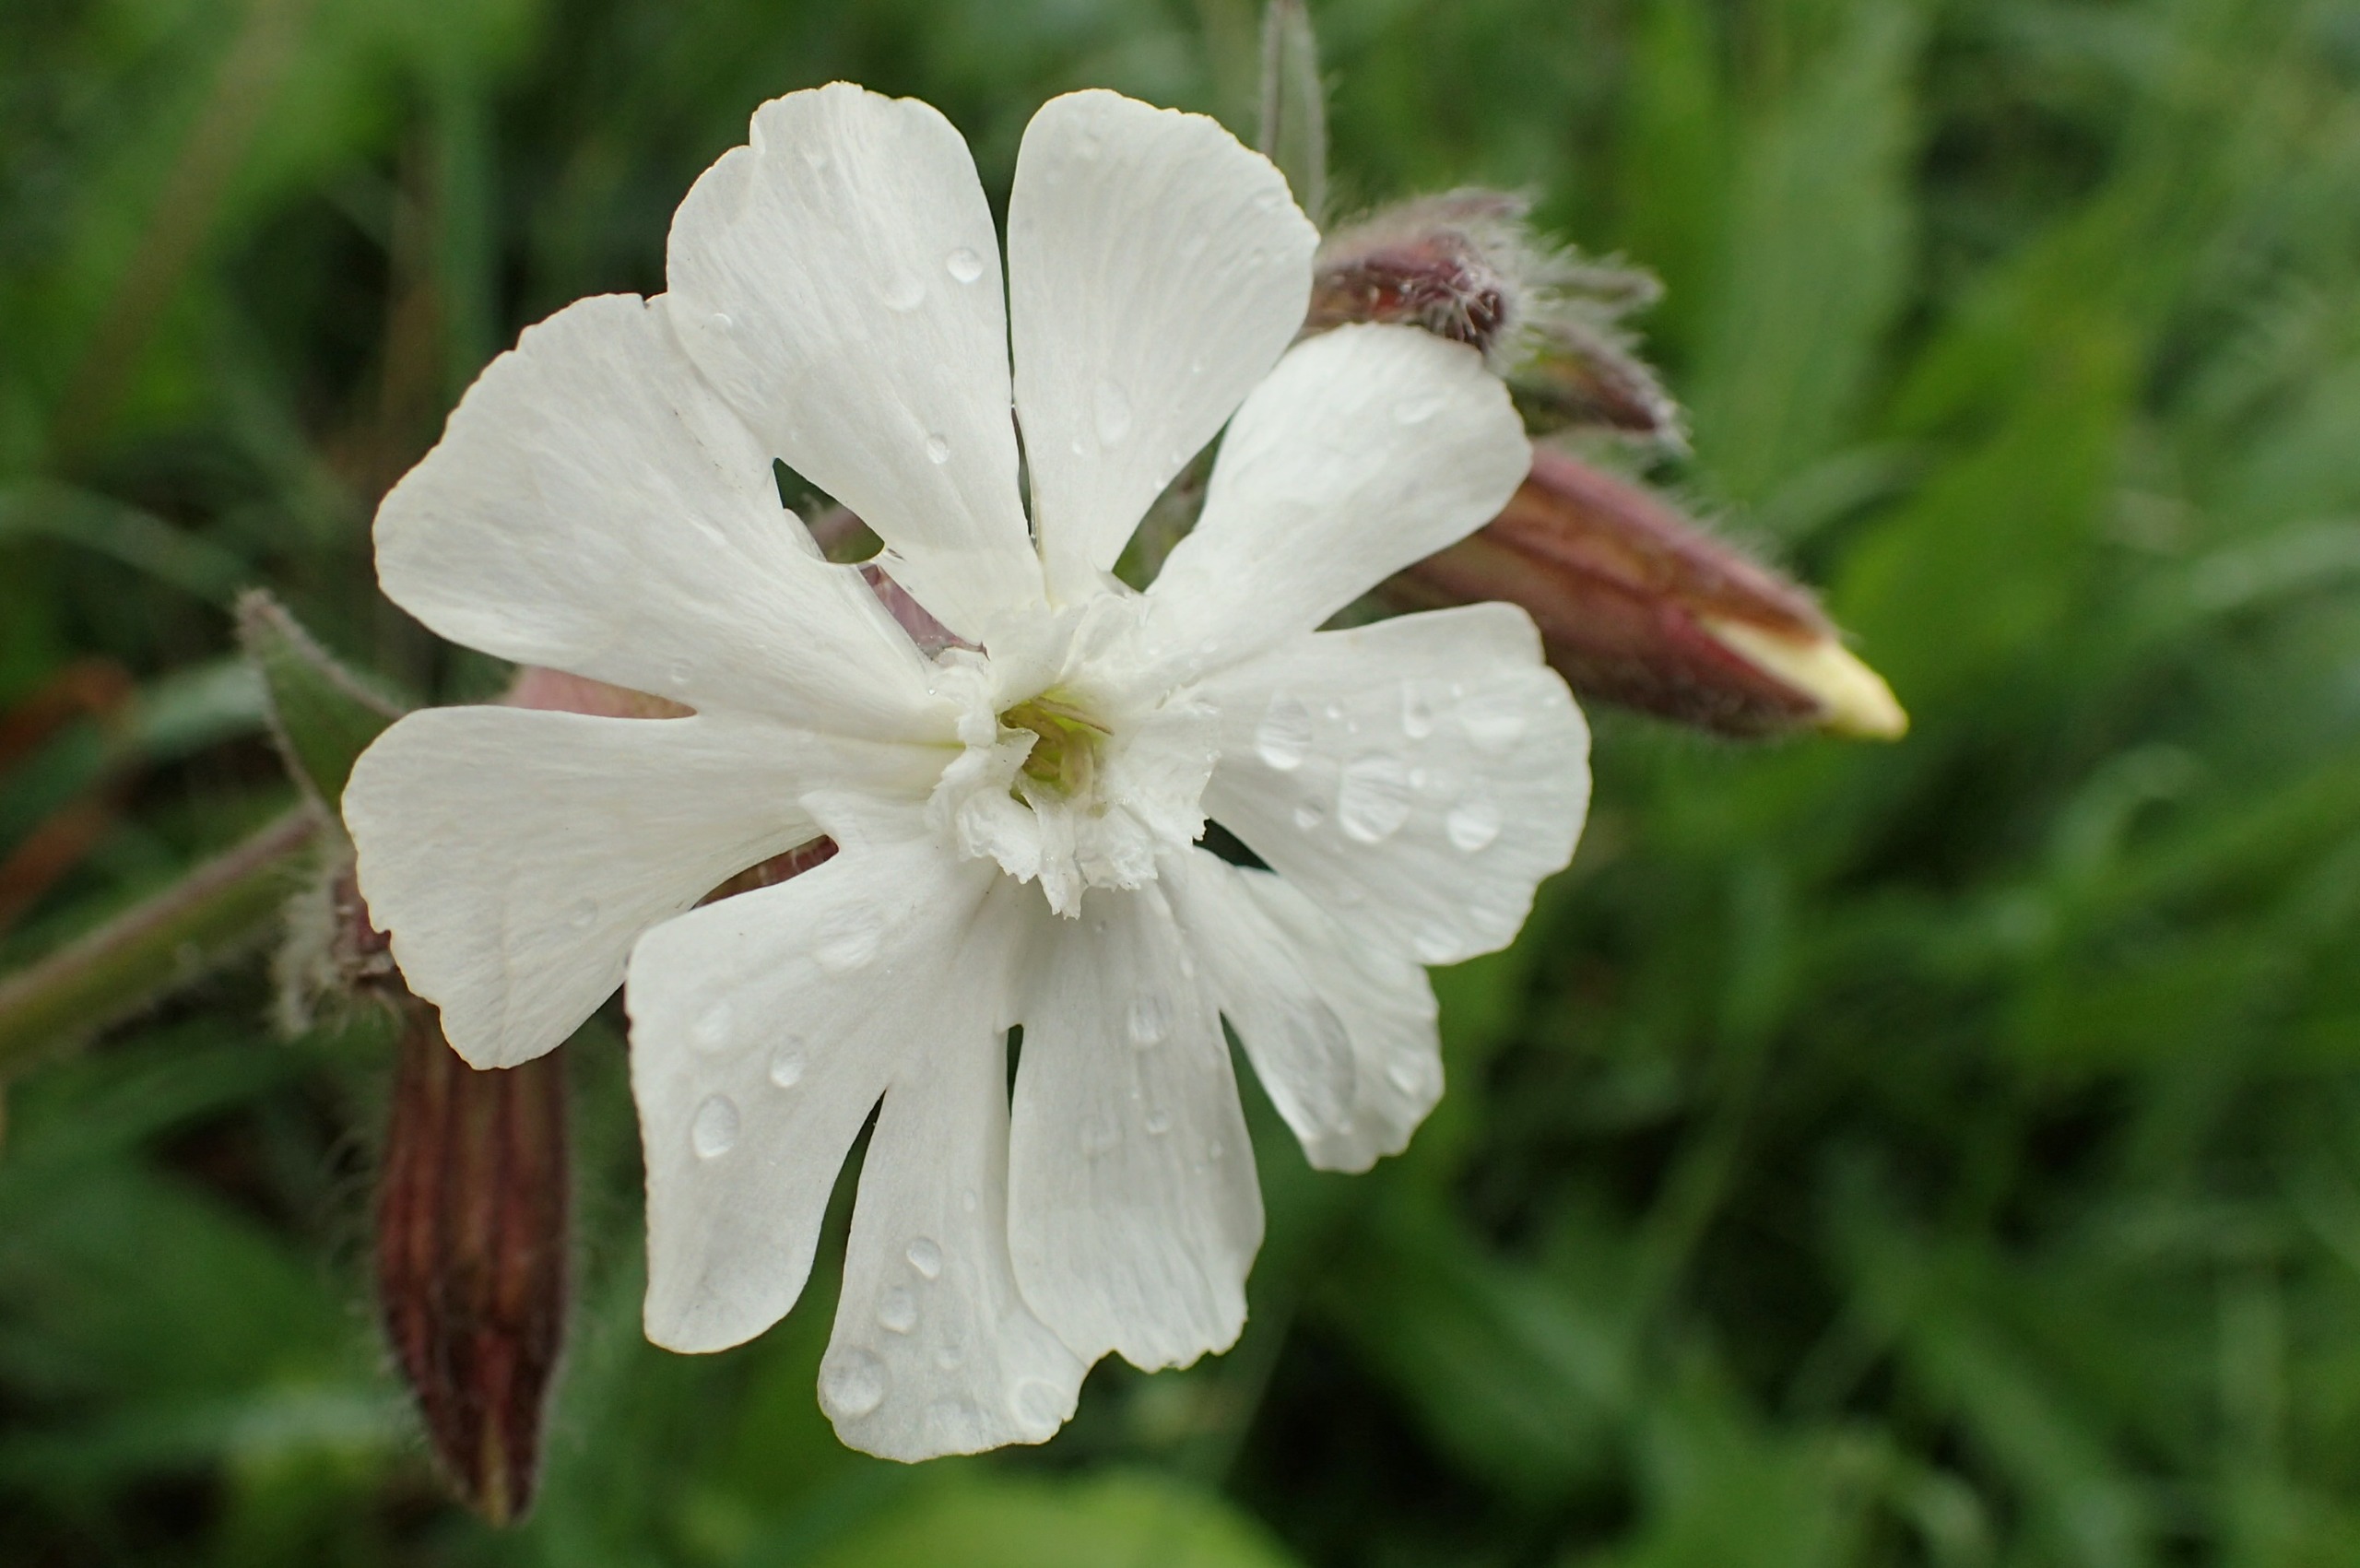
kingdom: Plantae
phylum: Tracheophyta
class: Magnoliopsida
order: Caryophyllales
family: Caryophyllaceae
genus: Silene
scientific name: Silene latifolia
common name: Aftenpragtstjerne
